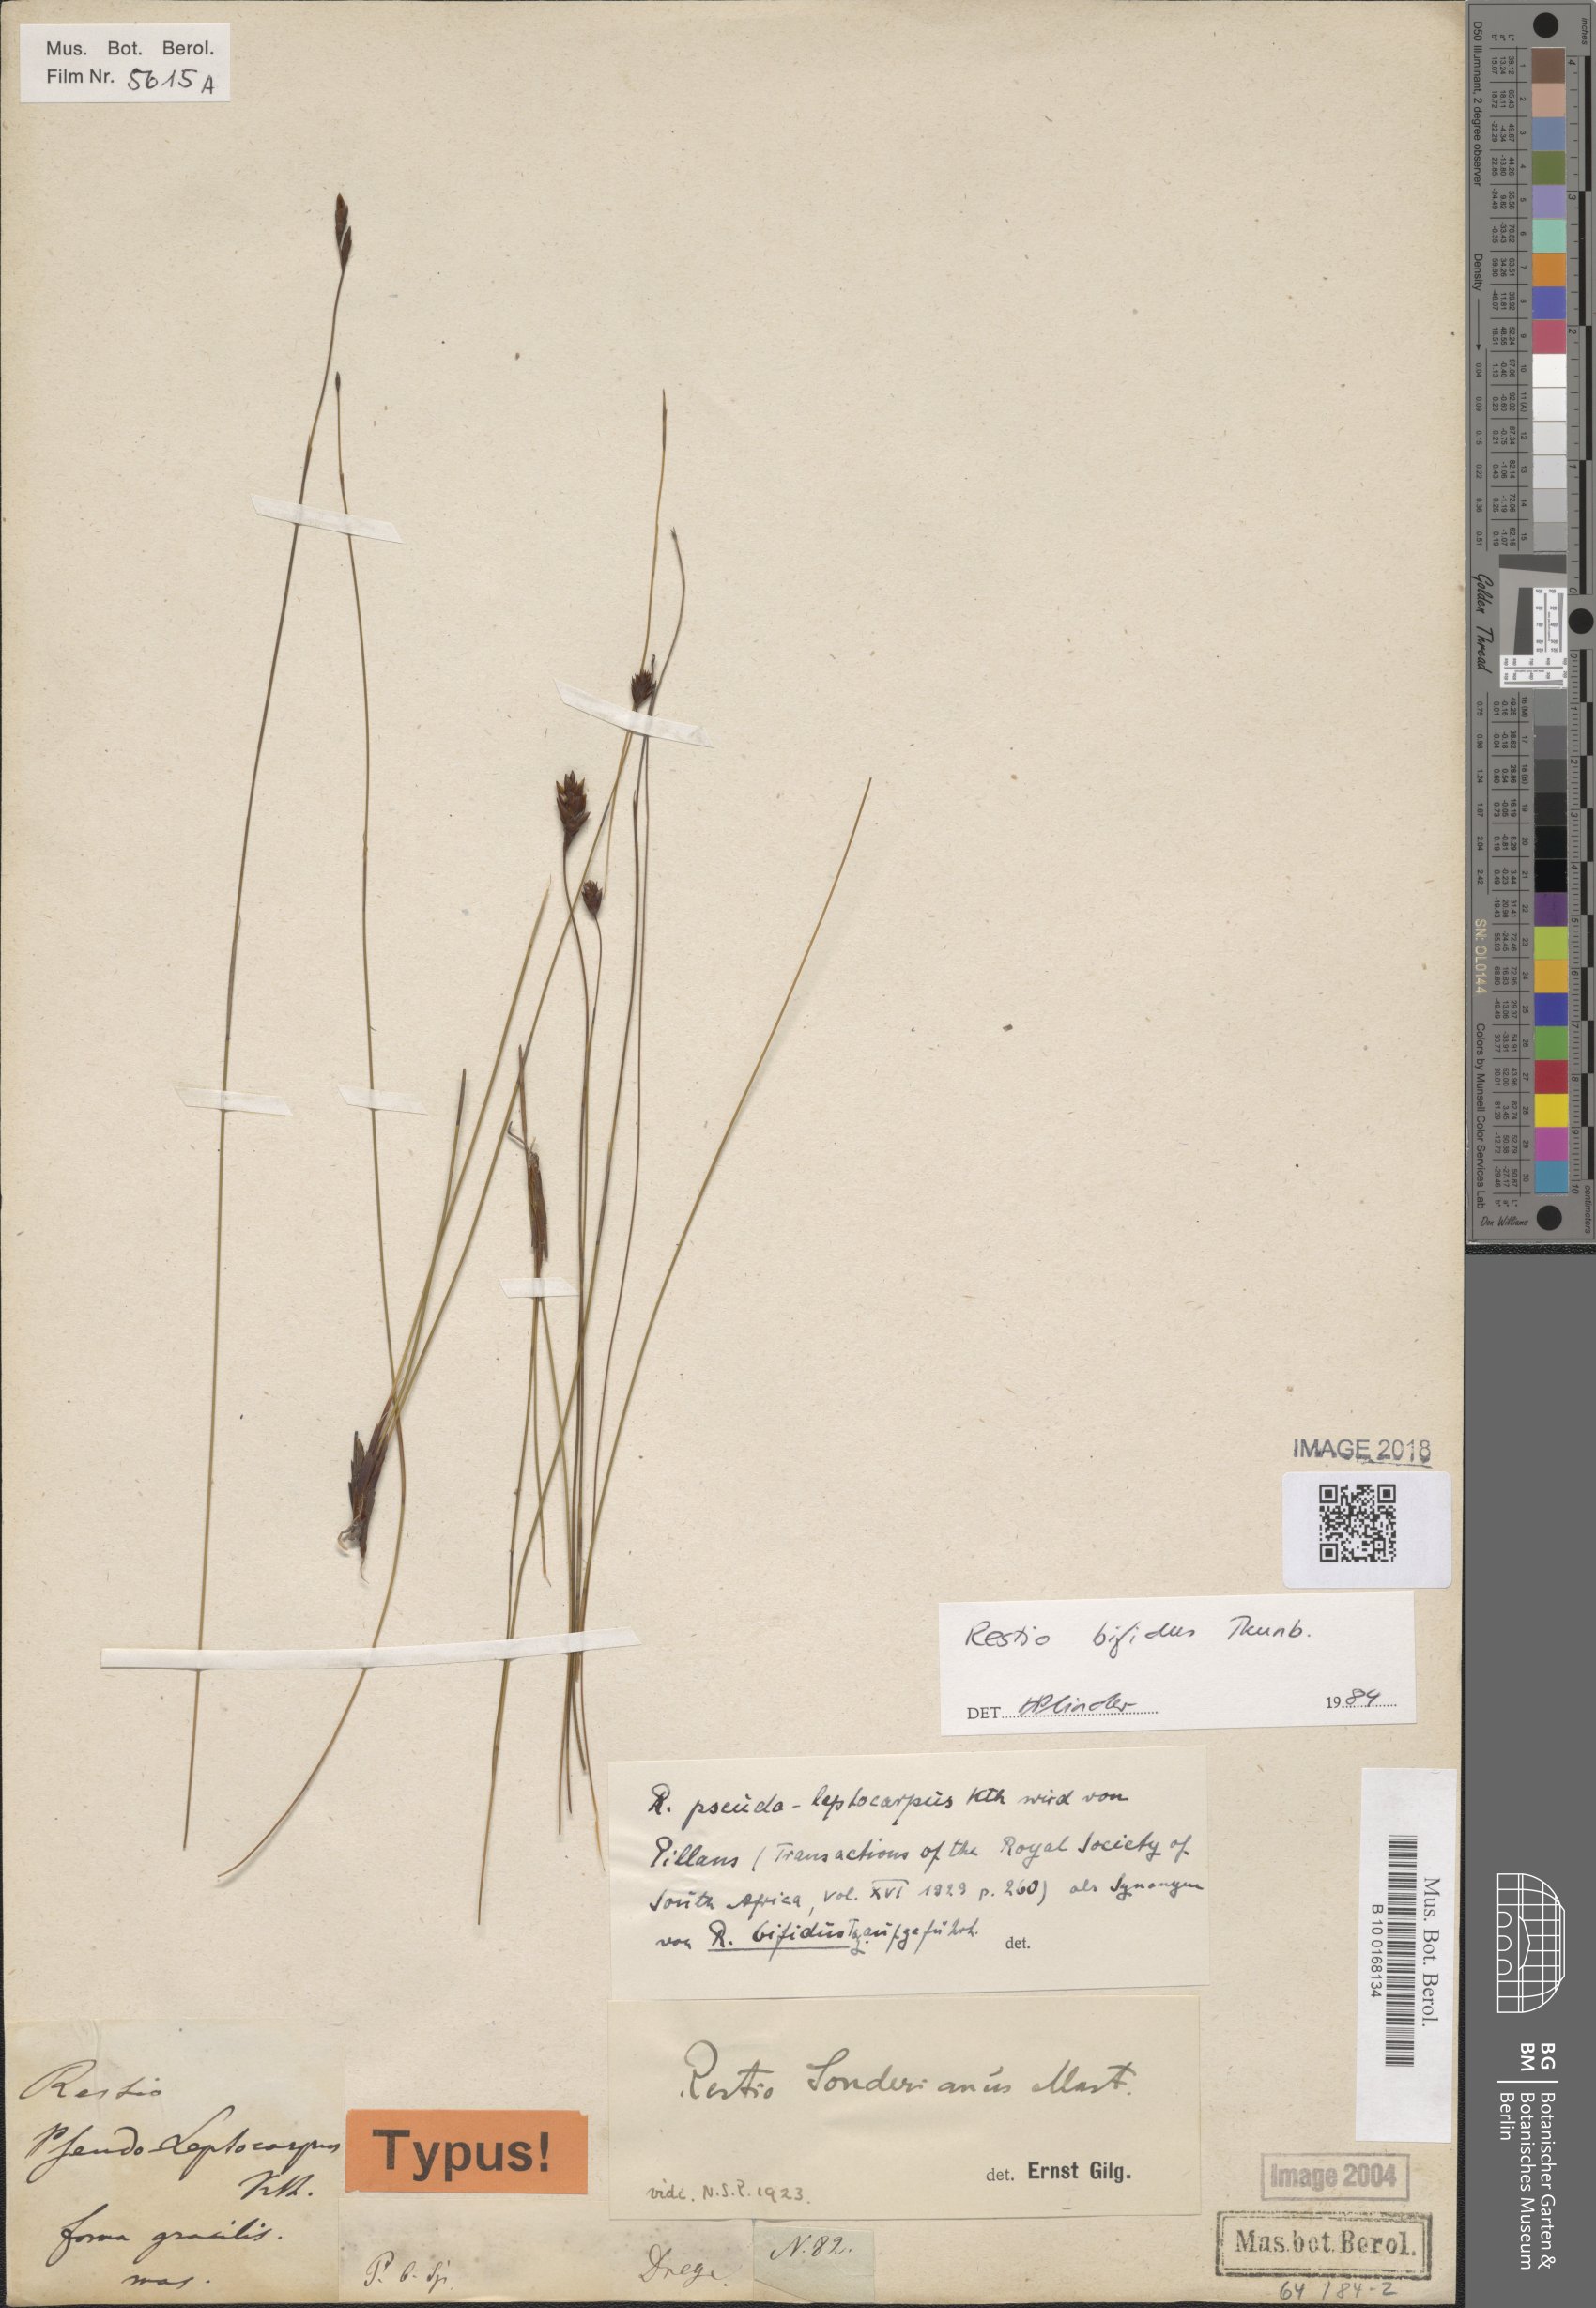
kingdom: Plantae
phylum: Tracheophyta
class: Liliopsida
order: Poales
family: Restionaceae
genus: Restio
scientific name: Restio bifidus
